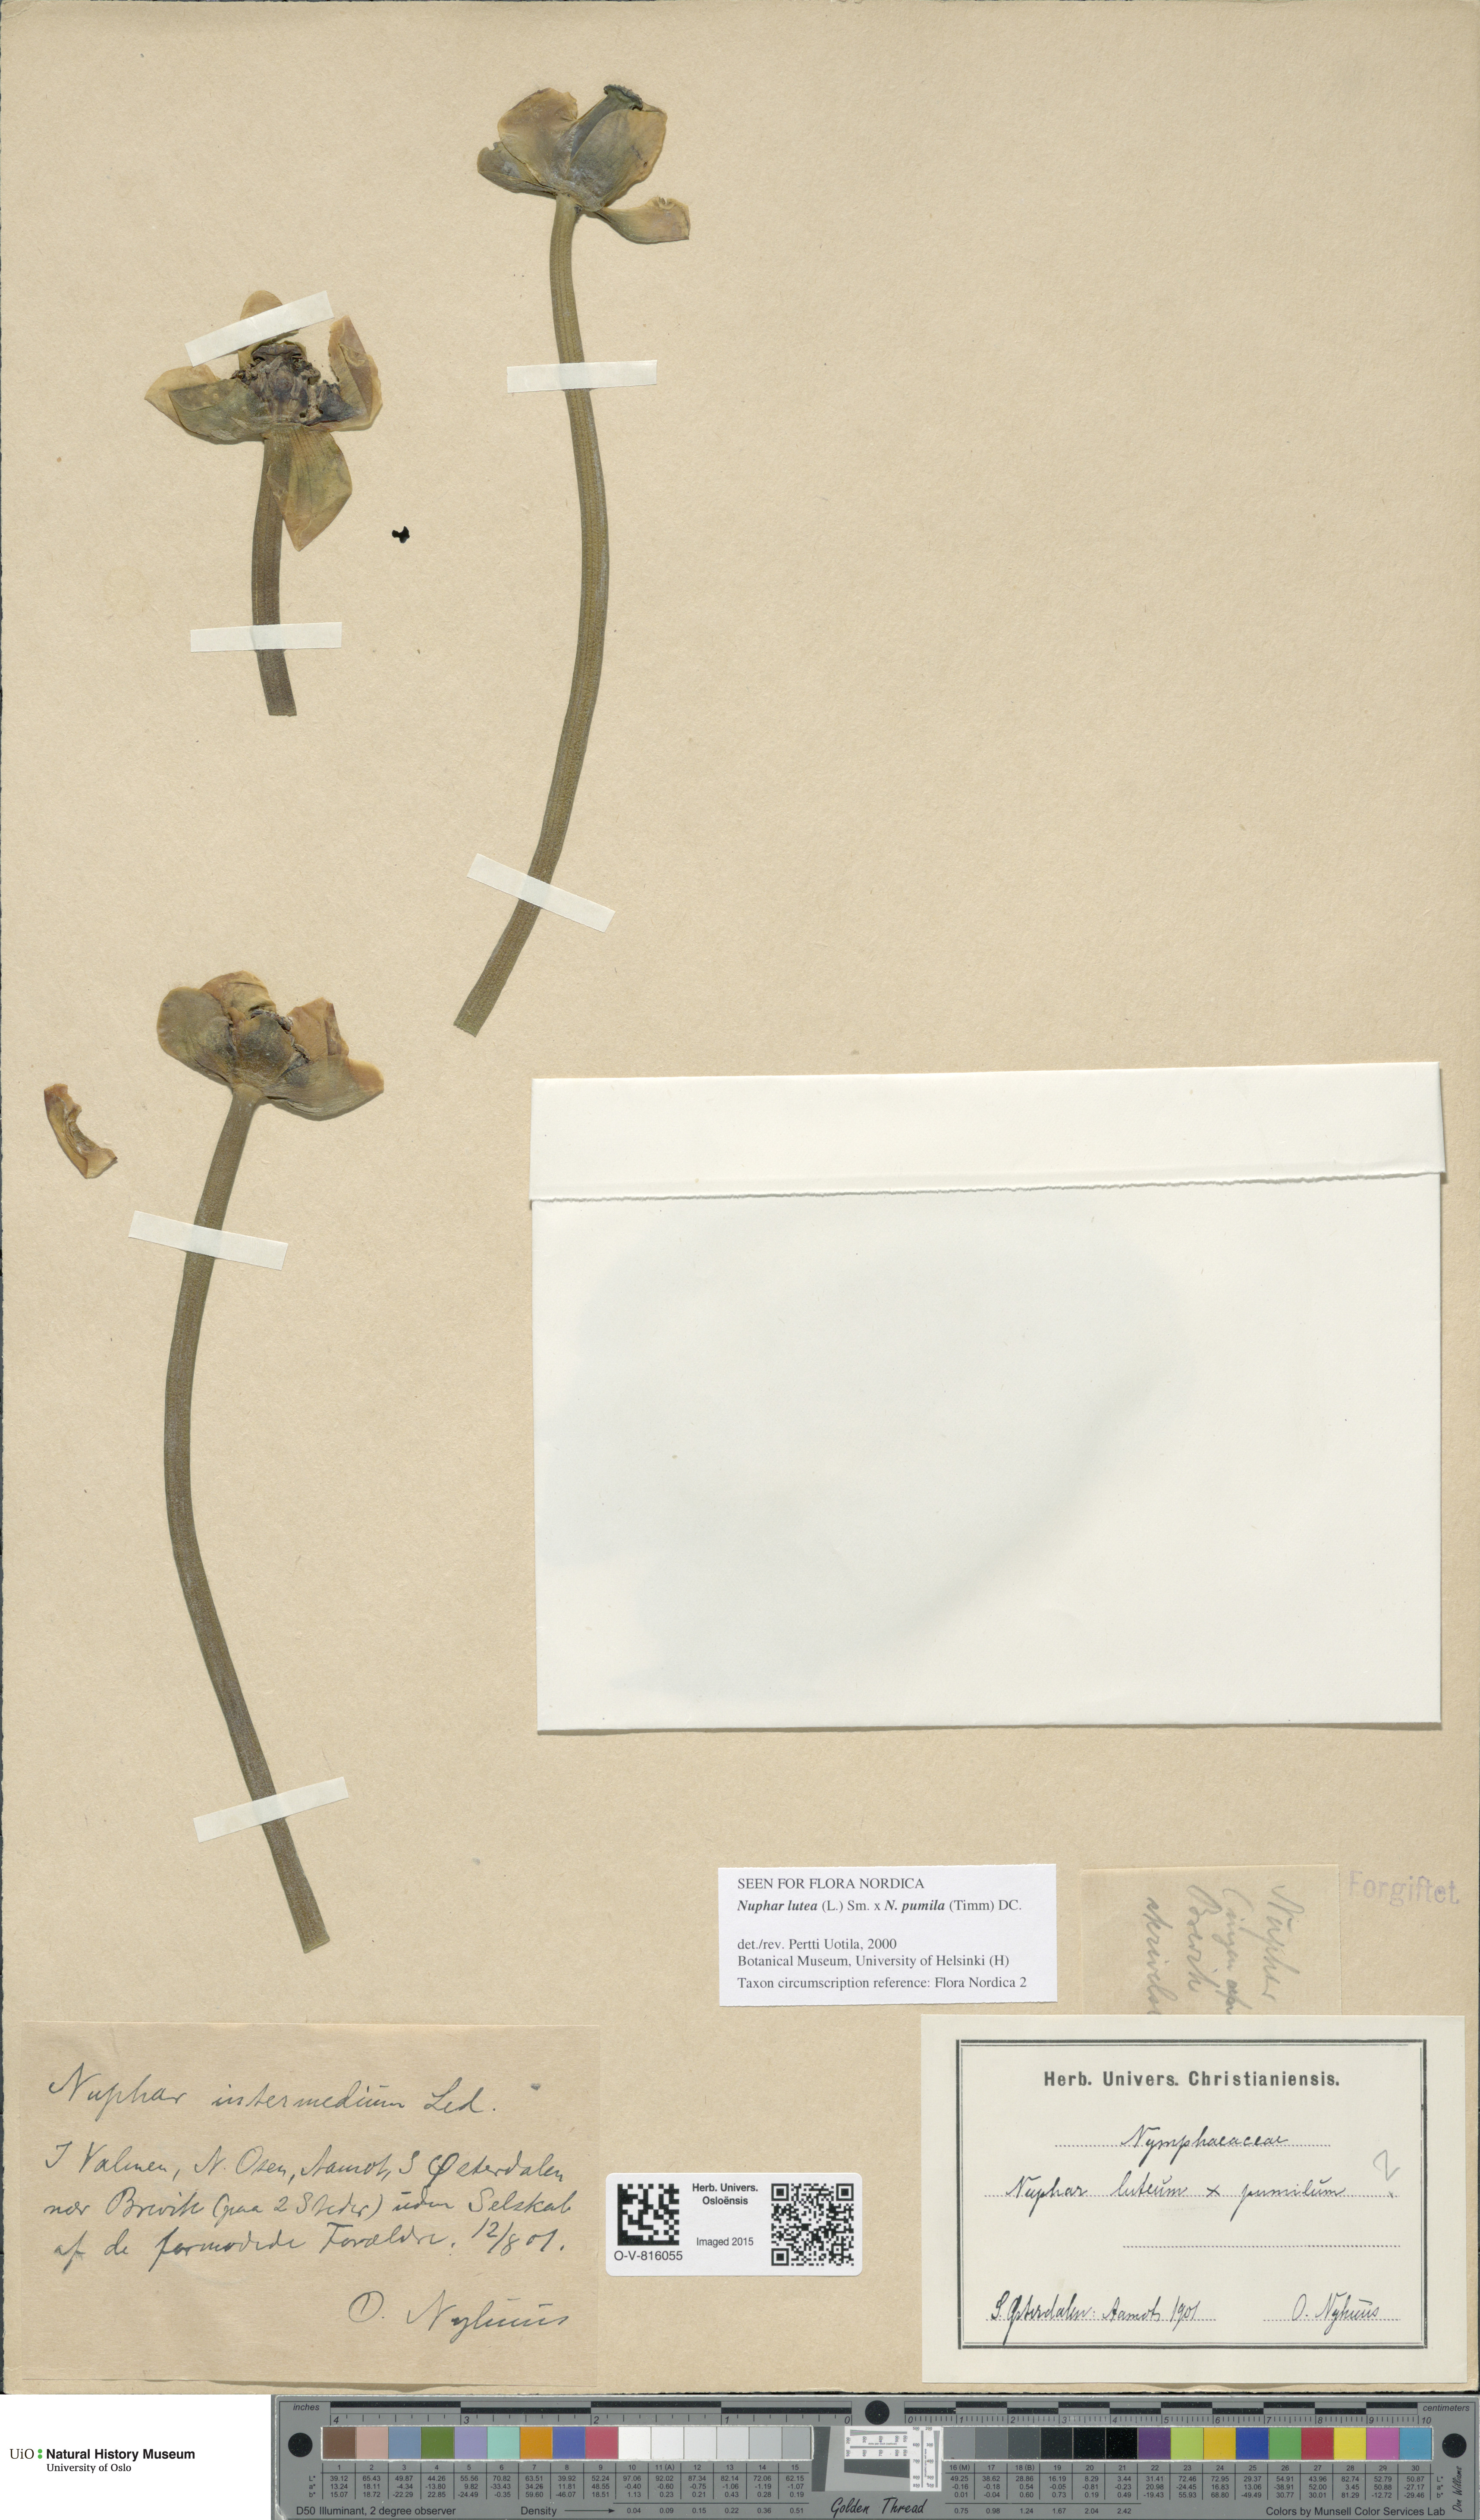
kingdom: Plantae
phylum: Tracheophyta
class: Magnoliopsida
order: Nymphaeales
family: Nymphaeaceae
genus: Nuphar
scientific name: Nuphar
